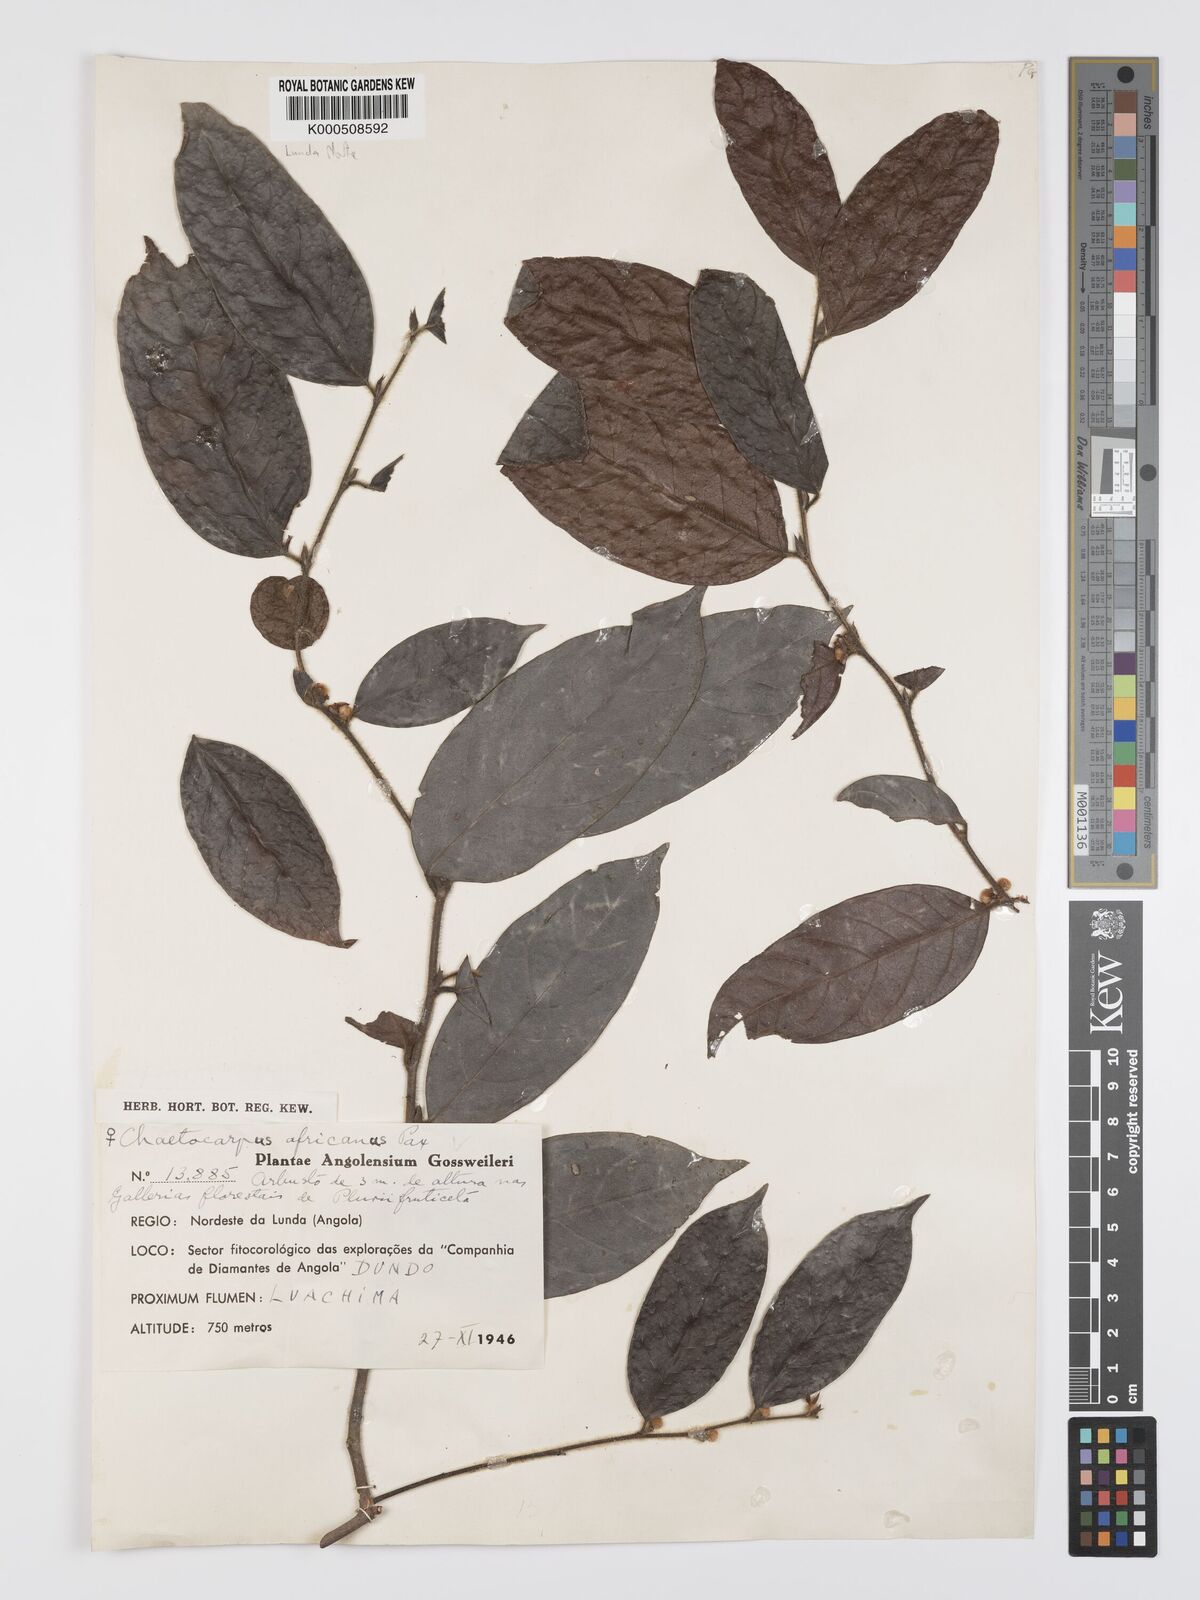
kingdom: Plantae
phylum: Tracheophyta
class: Magnoliopsida
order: Malpighiales
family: Peraceae
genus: Chaetocarpus
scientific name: Chaetocarpus africanus
